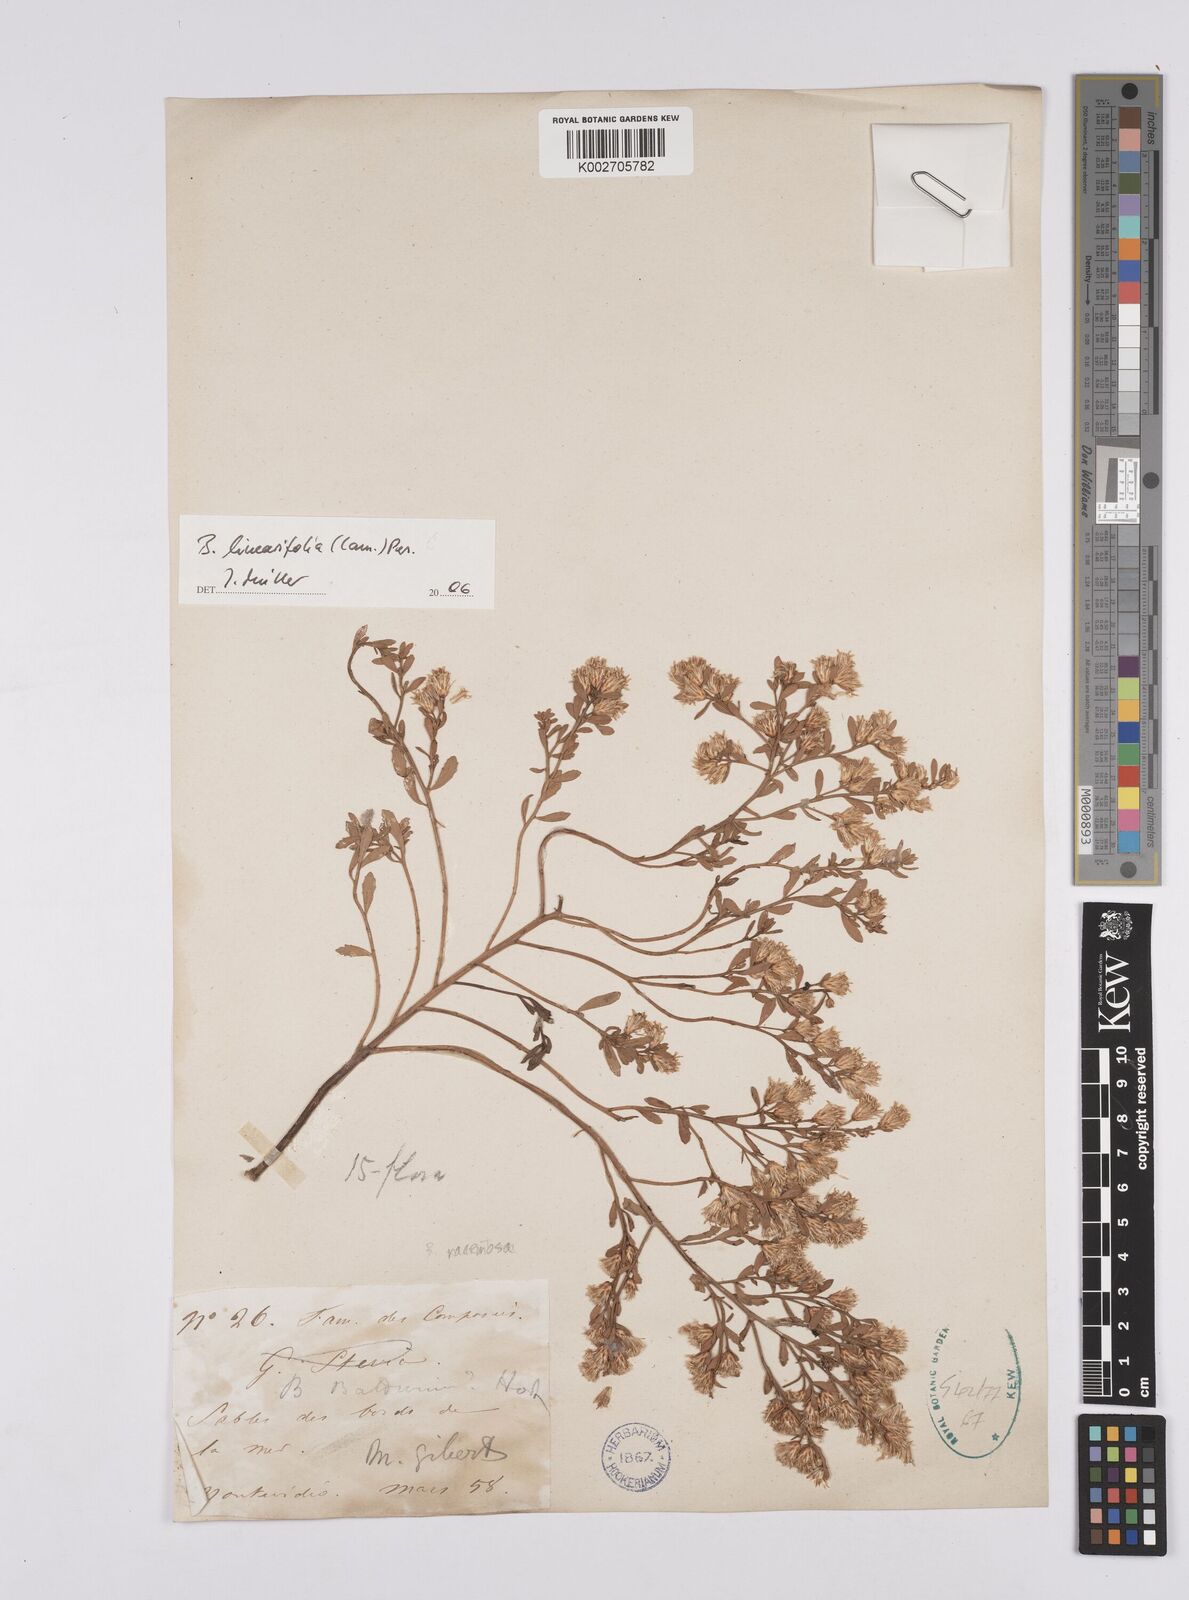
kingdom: Plantae
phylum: Tracheophyta
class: Magnoliopsida
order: Asterales
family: Asteraceae
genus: Baccharis
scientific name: Baccharis linearifolia
